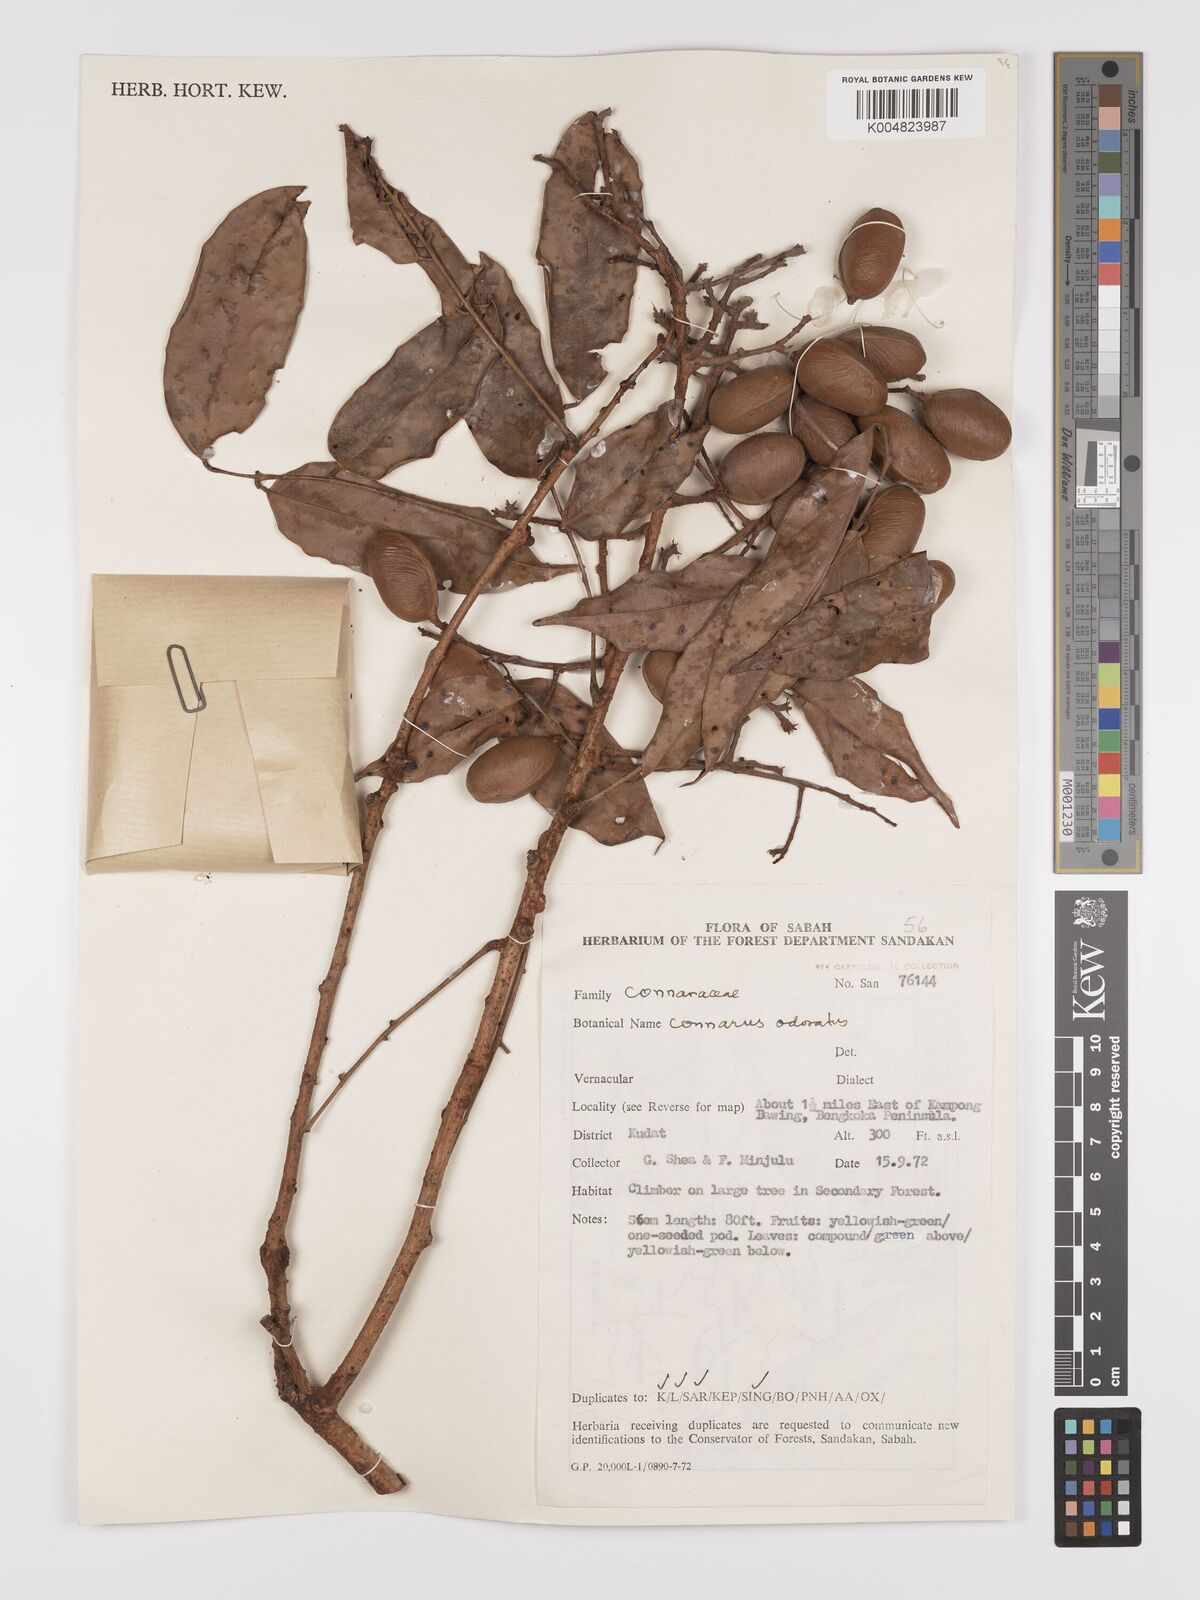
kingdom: Plantae
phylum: Tracheophyta
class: Magnoliopsida
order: Oxalidales
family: Connaraceae
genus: Connarus
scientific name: Connarus odoratus
